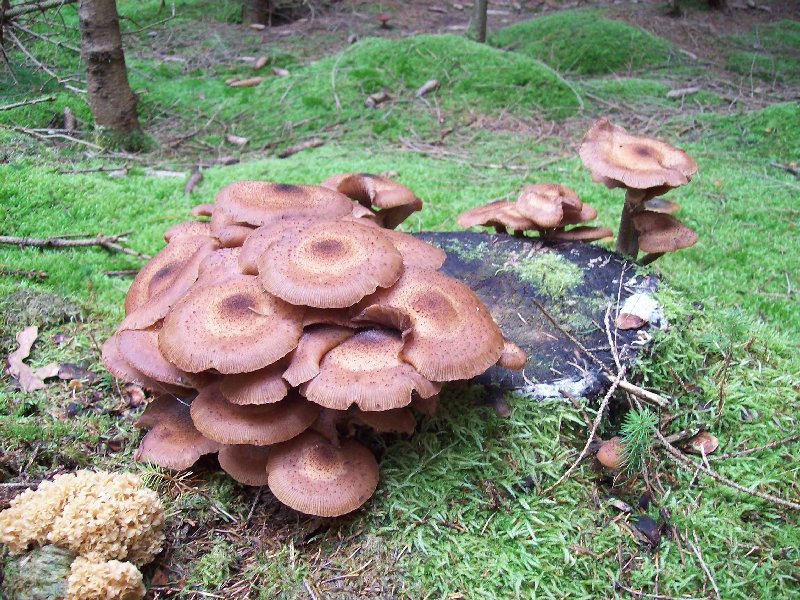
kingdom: Fungi
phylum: Basidiomycota
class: Agaricomycetes
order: Agaricales
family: Physalacriaceae
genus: Armillaria
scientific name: Armillaria ostoyae
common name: mørk honningsvamp
